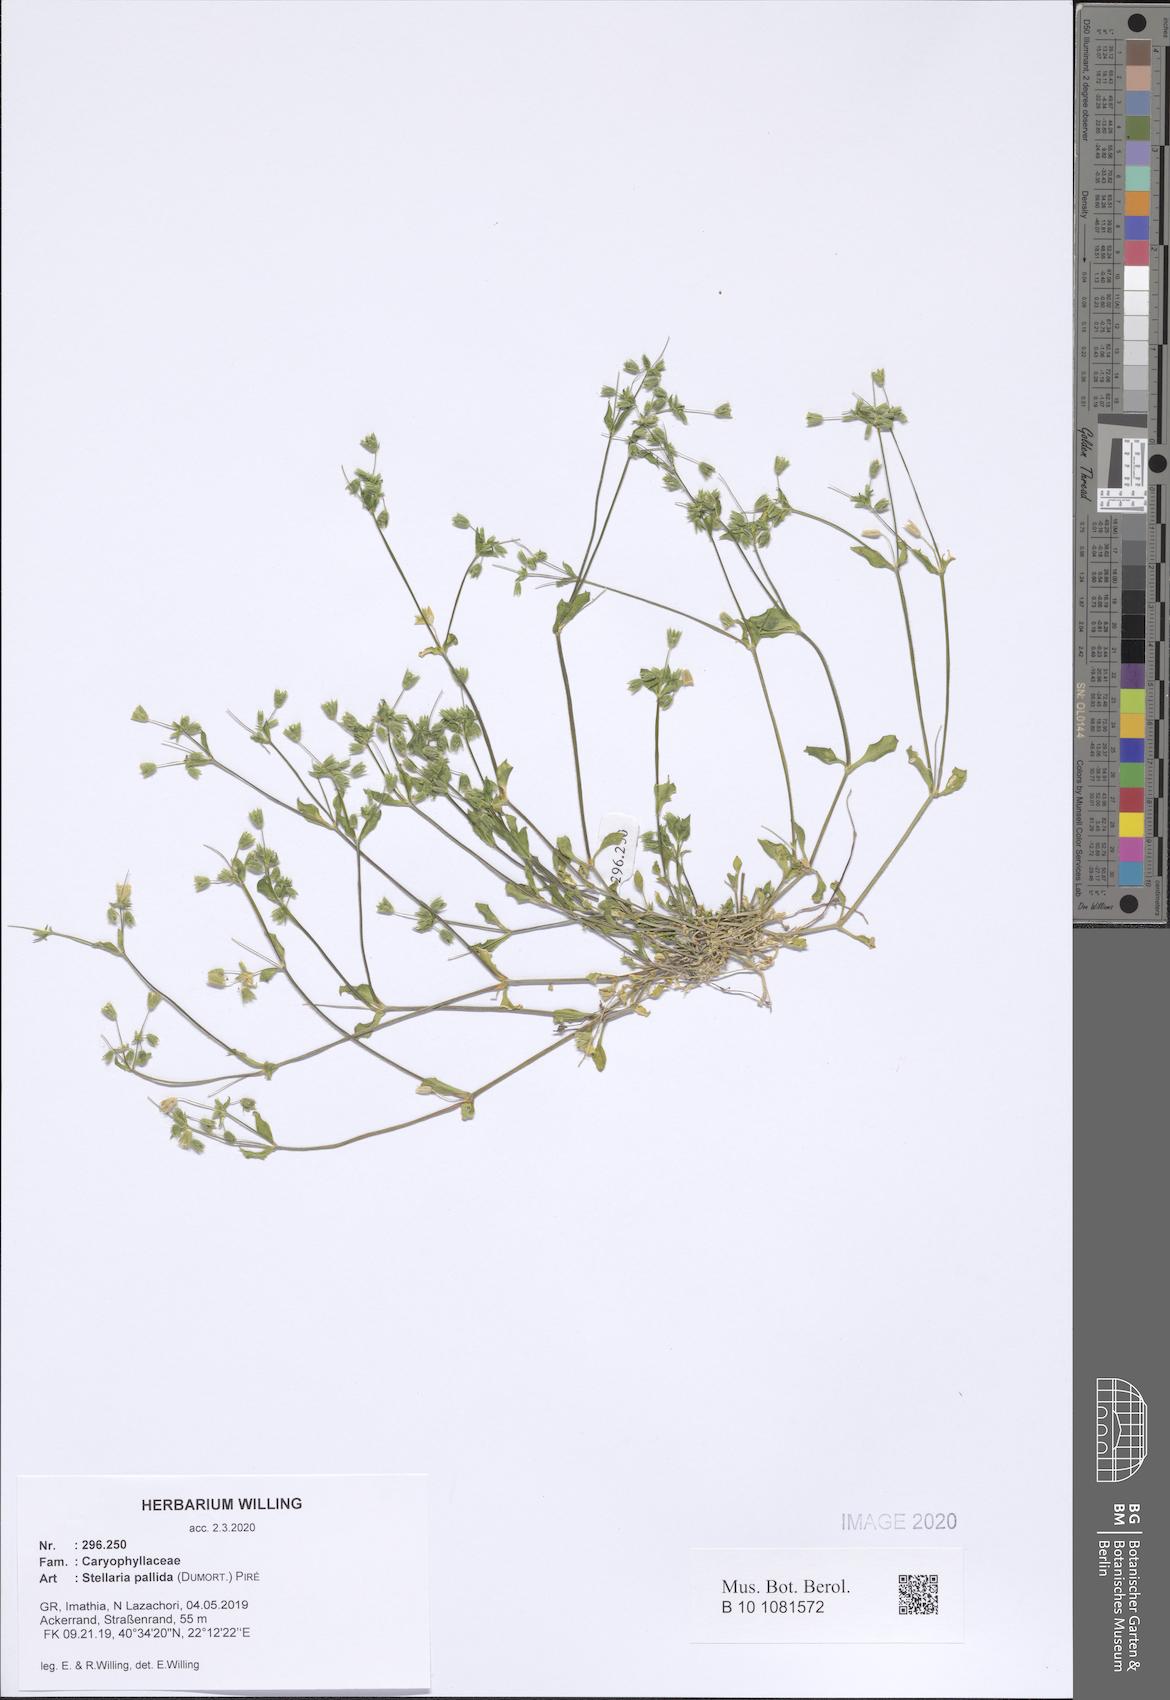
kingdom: Plantae
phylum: Tracheophyta
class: Magnoliopsida
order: Caryophyllales
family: Caryophyllaceae
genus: Stellaria
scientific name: Stellaria apetala
